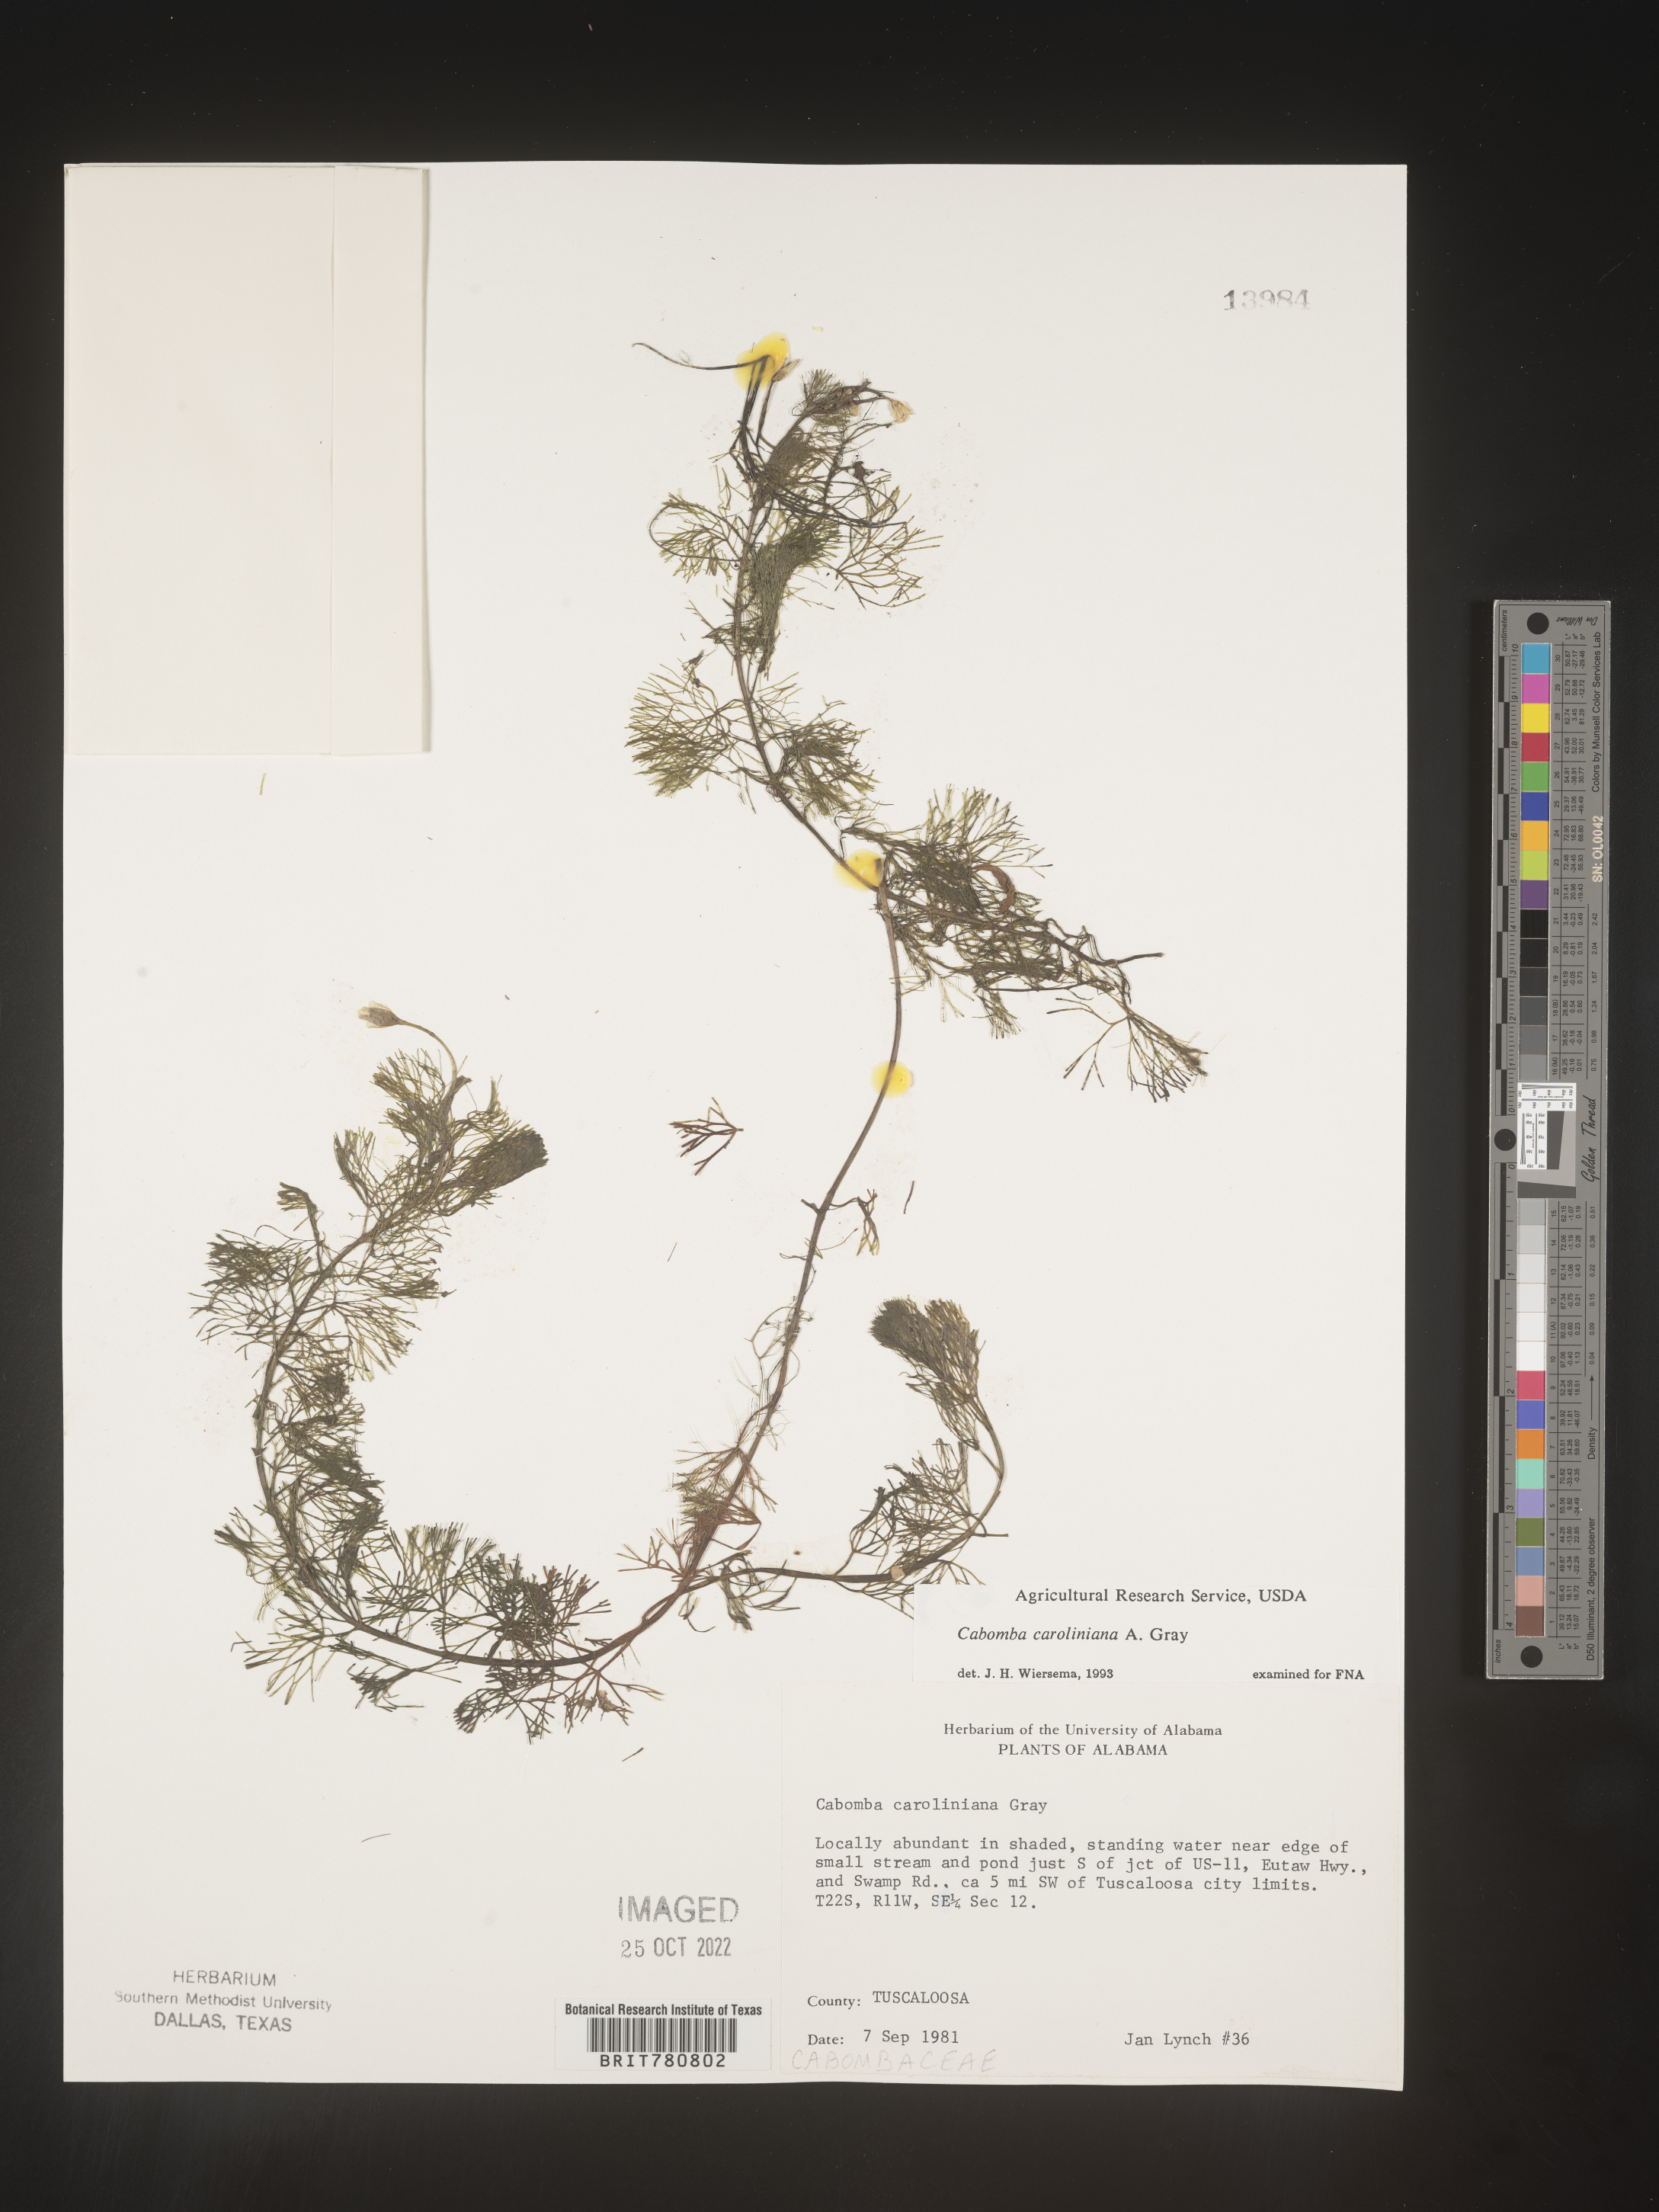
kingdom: Plantae
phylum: Tracheophyta
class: Magnoliopsida
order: Nymphaeales
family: Cabombaceae
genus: Cabomba
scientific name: Cabomba
